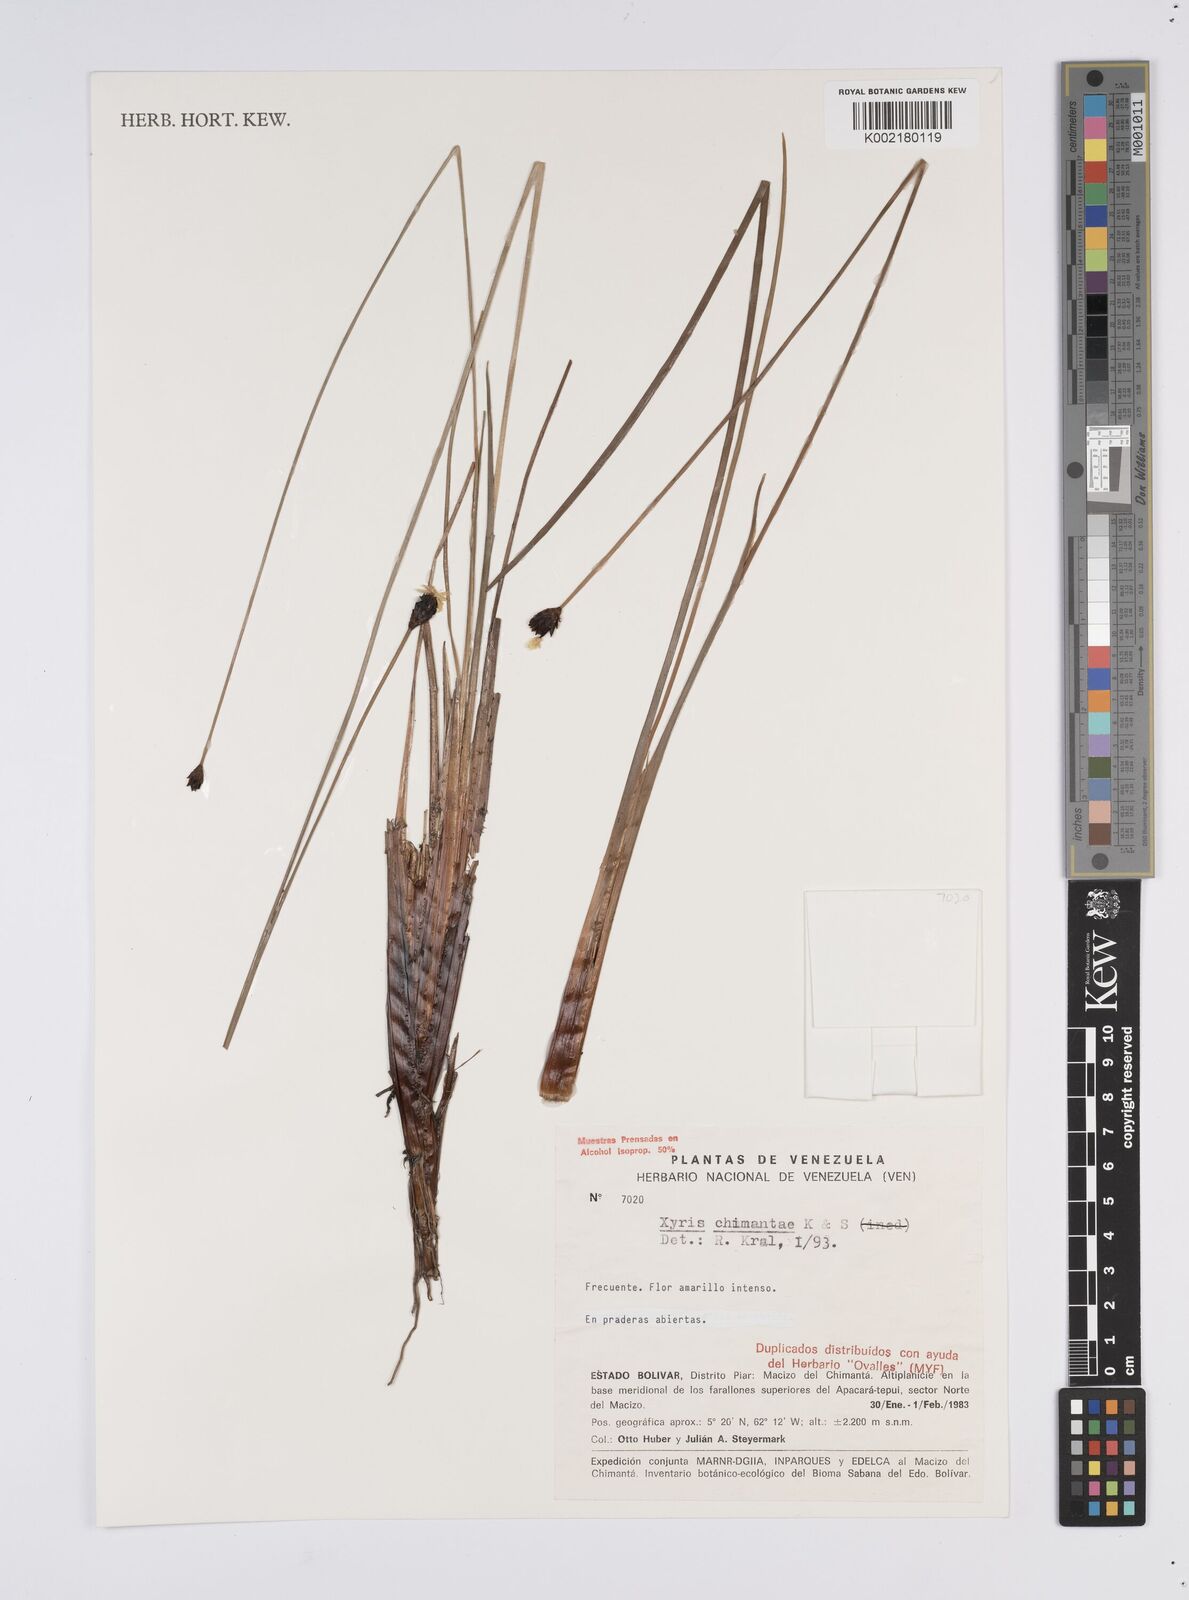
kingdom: Plantae
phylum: Tracheophyta
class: Liliopsida
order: Poales
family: Xyridaceae
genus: Xyris
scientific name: Xyris chimantae
